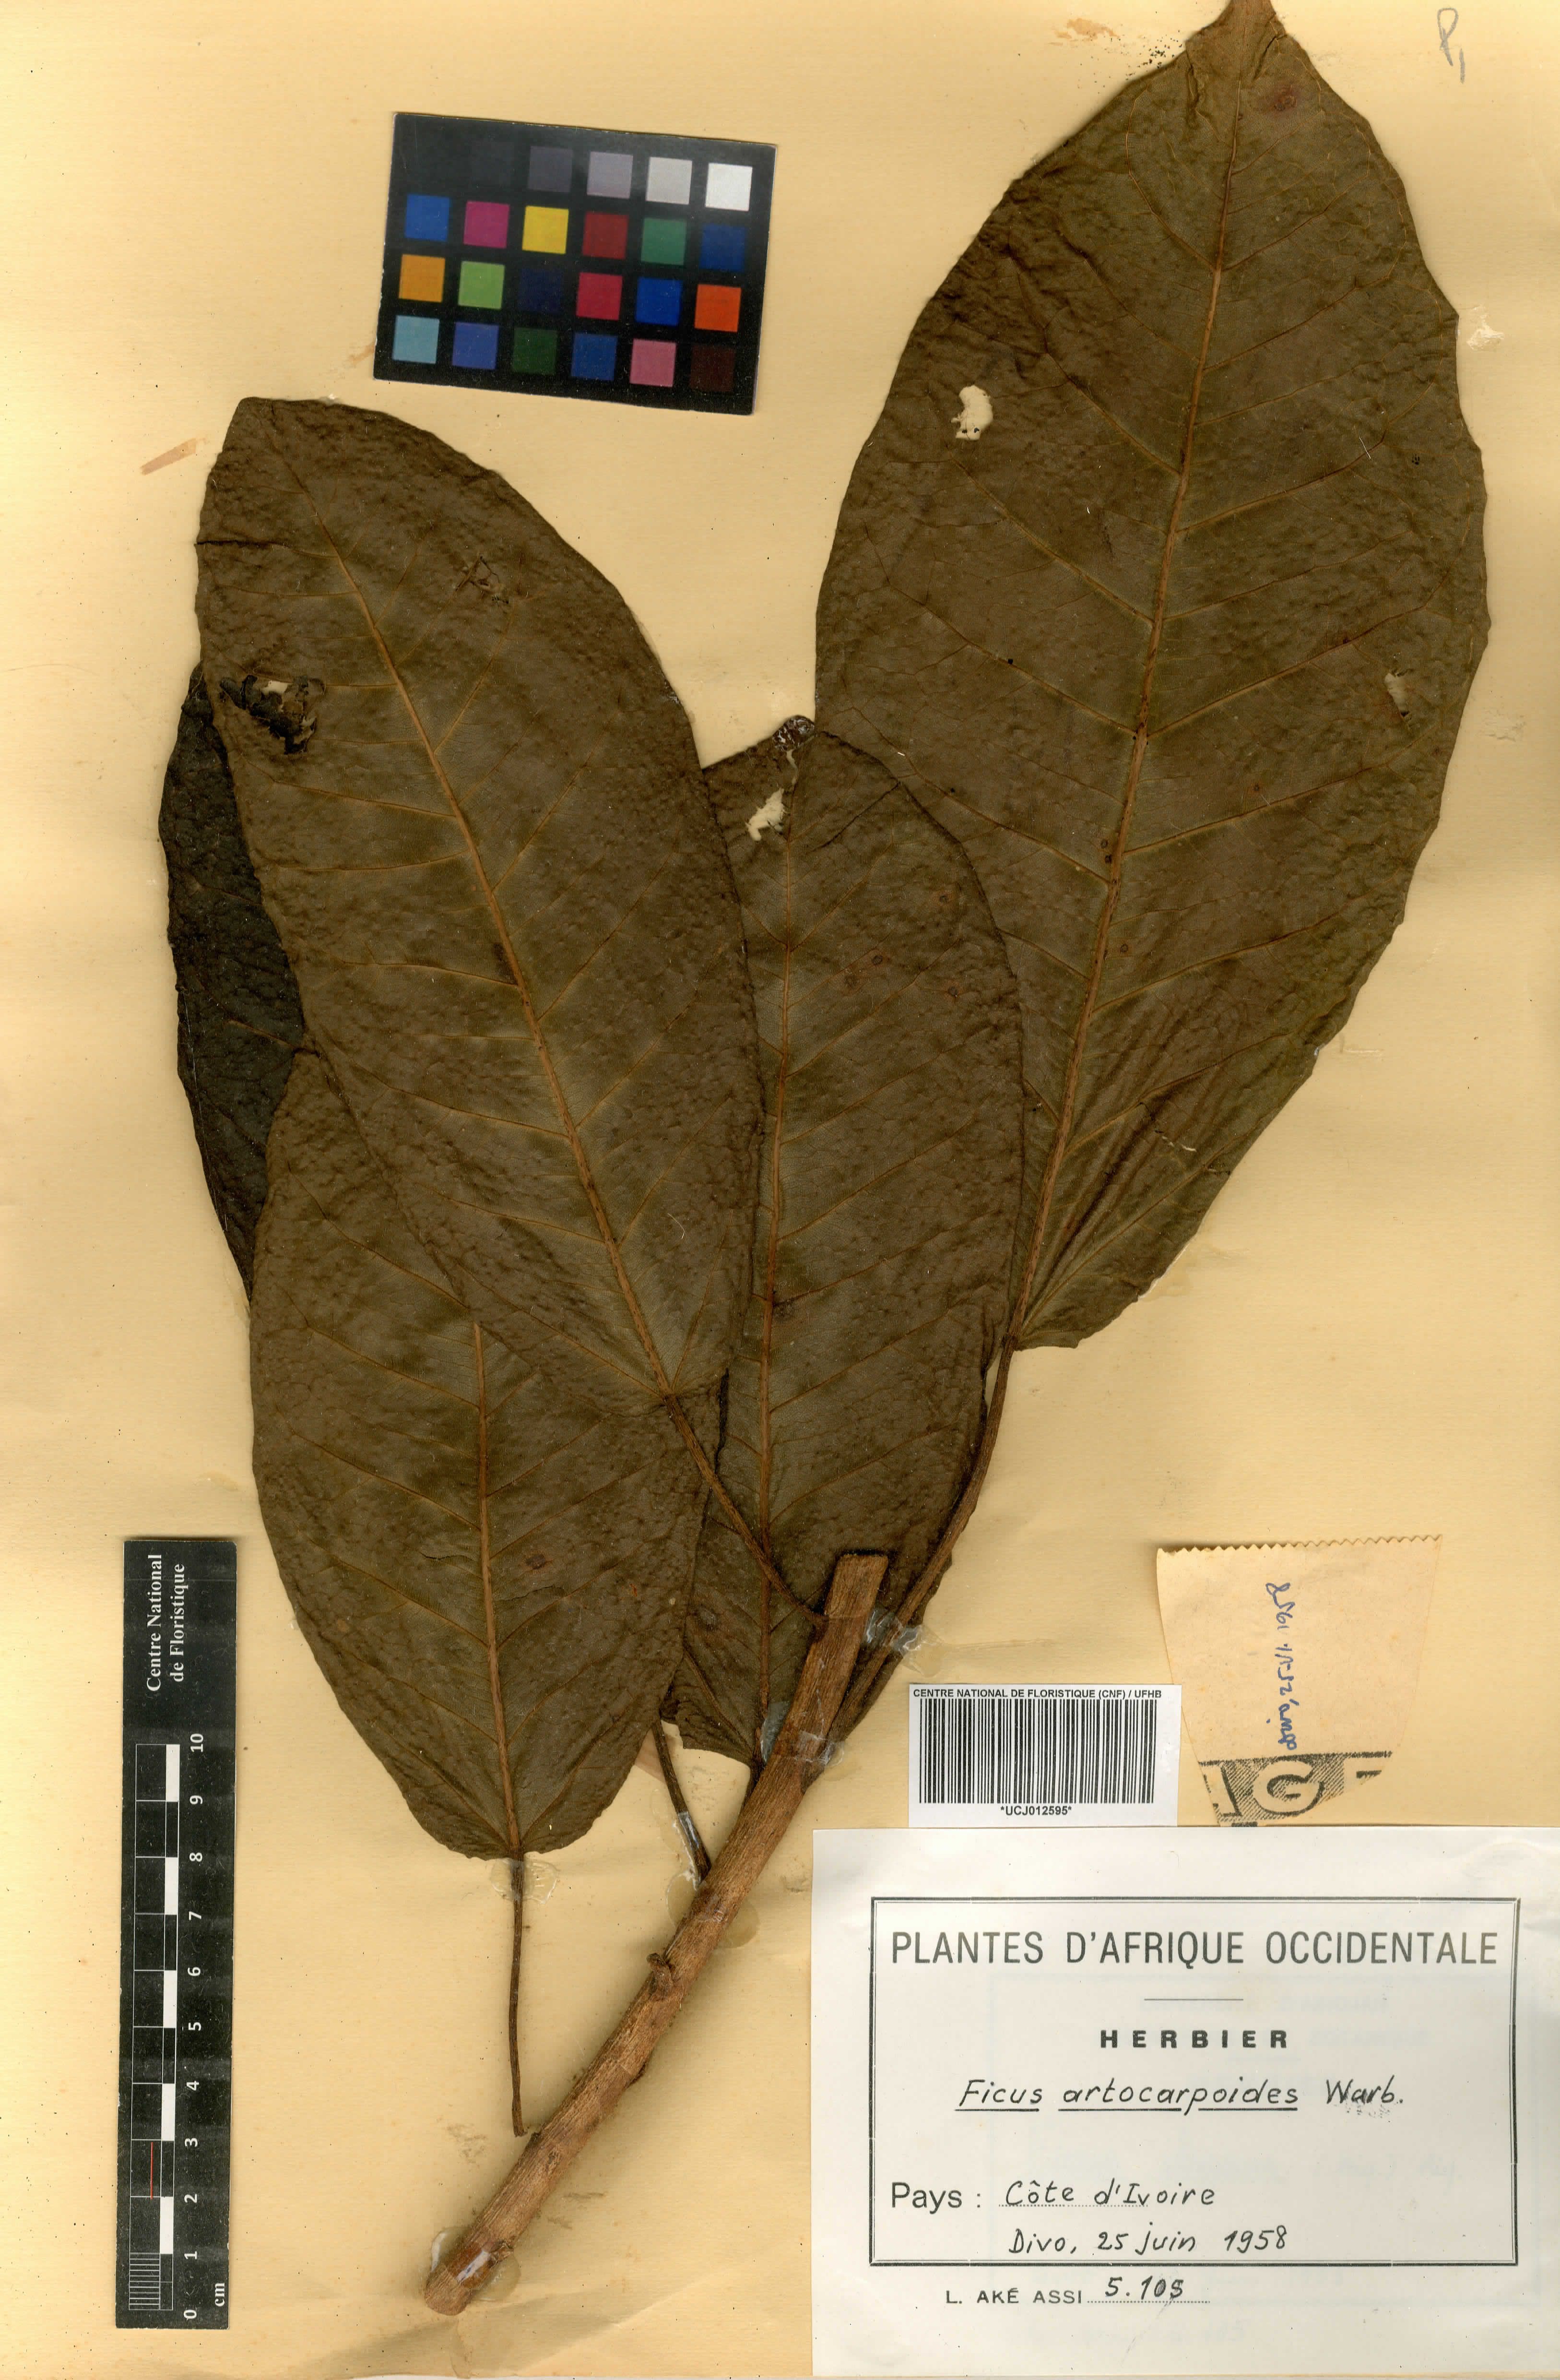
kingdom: Plantae
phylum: Tracheophyta
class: Magnoliopsida
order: Rosales
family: Moraceae
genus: Ficus
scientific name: Ficus demeusei
